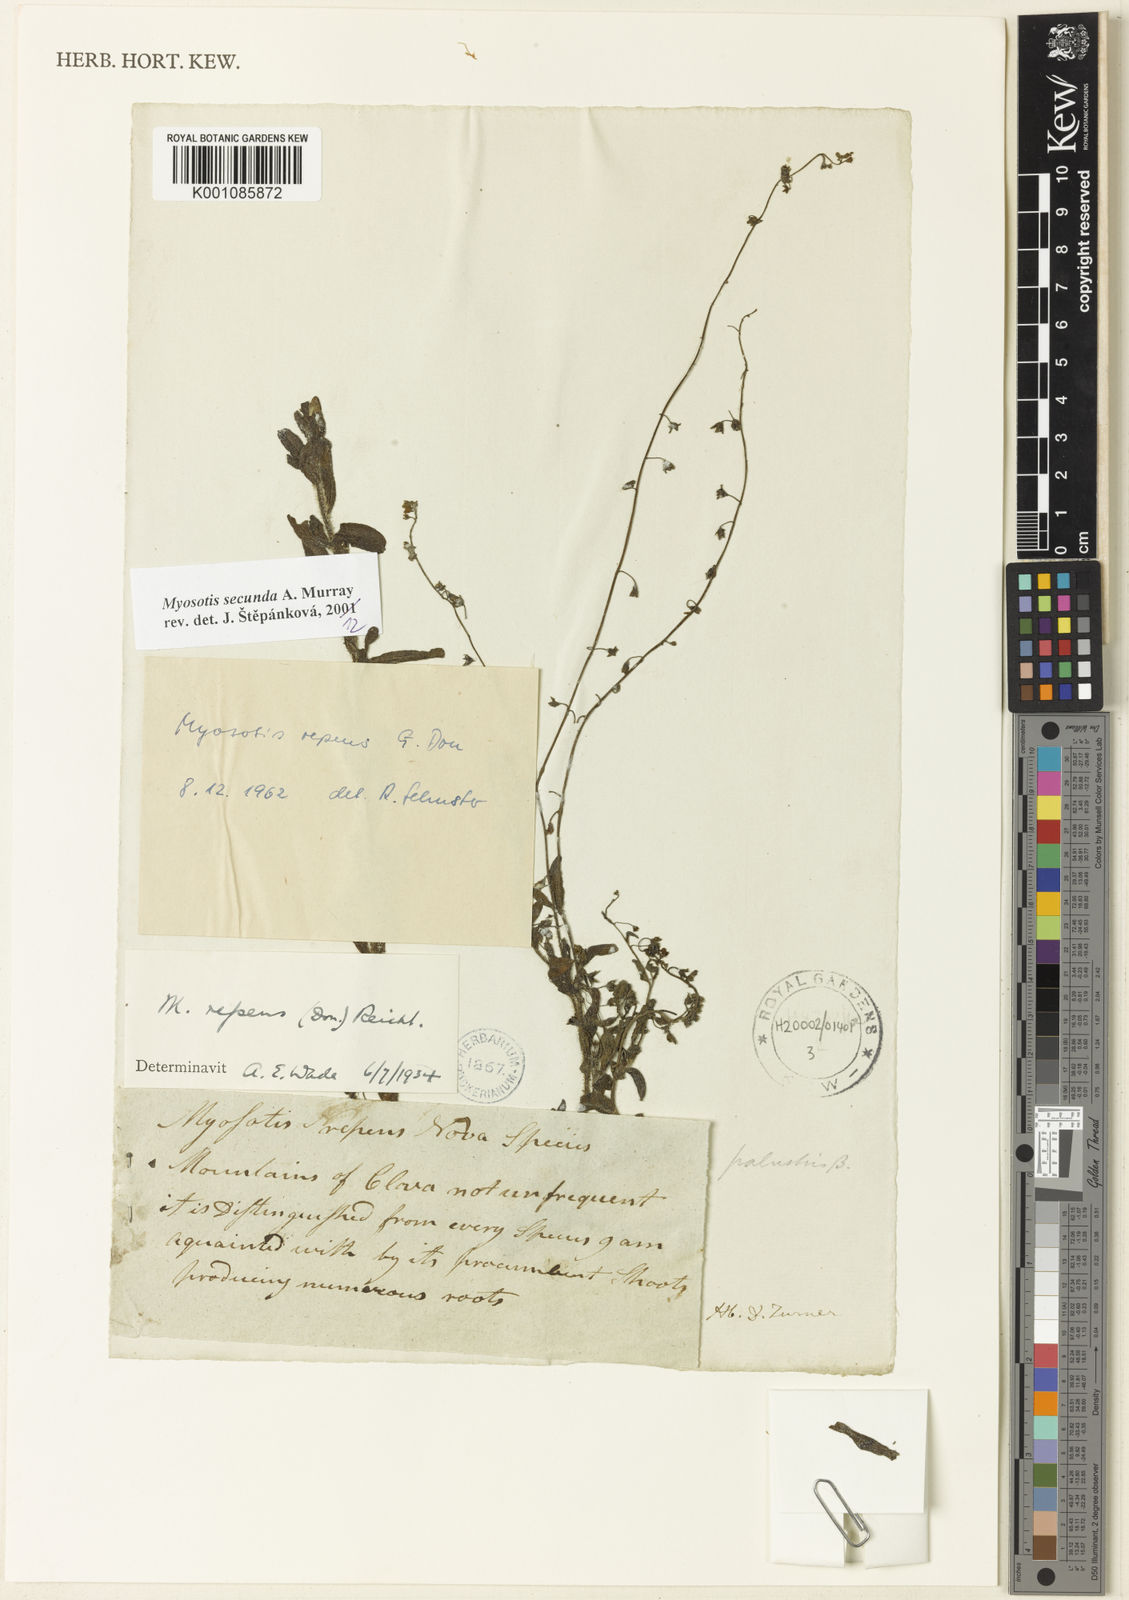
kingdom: Plantae
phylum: Tracheophyta
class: Magnoliopsida
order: Boraginales
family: Boraginaceae
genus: Myosotis
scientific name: Myosotis secunda
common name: Creeping forget-me-not
